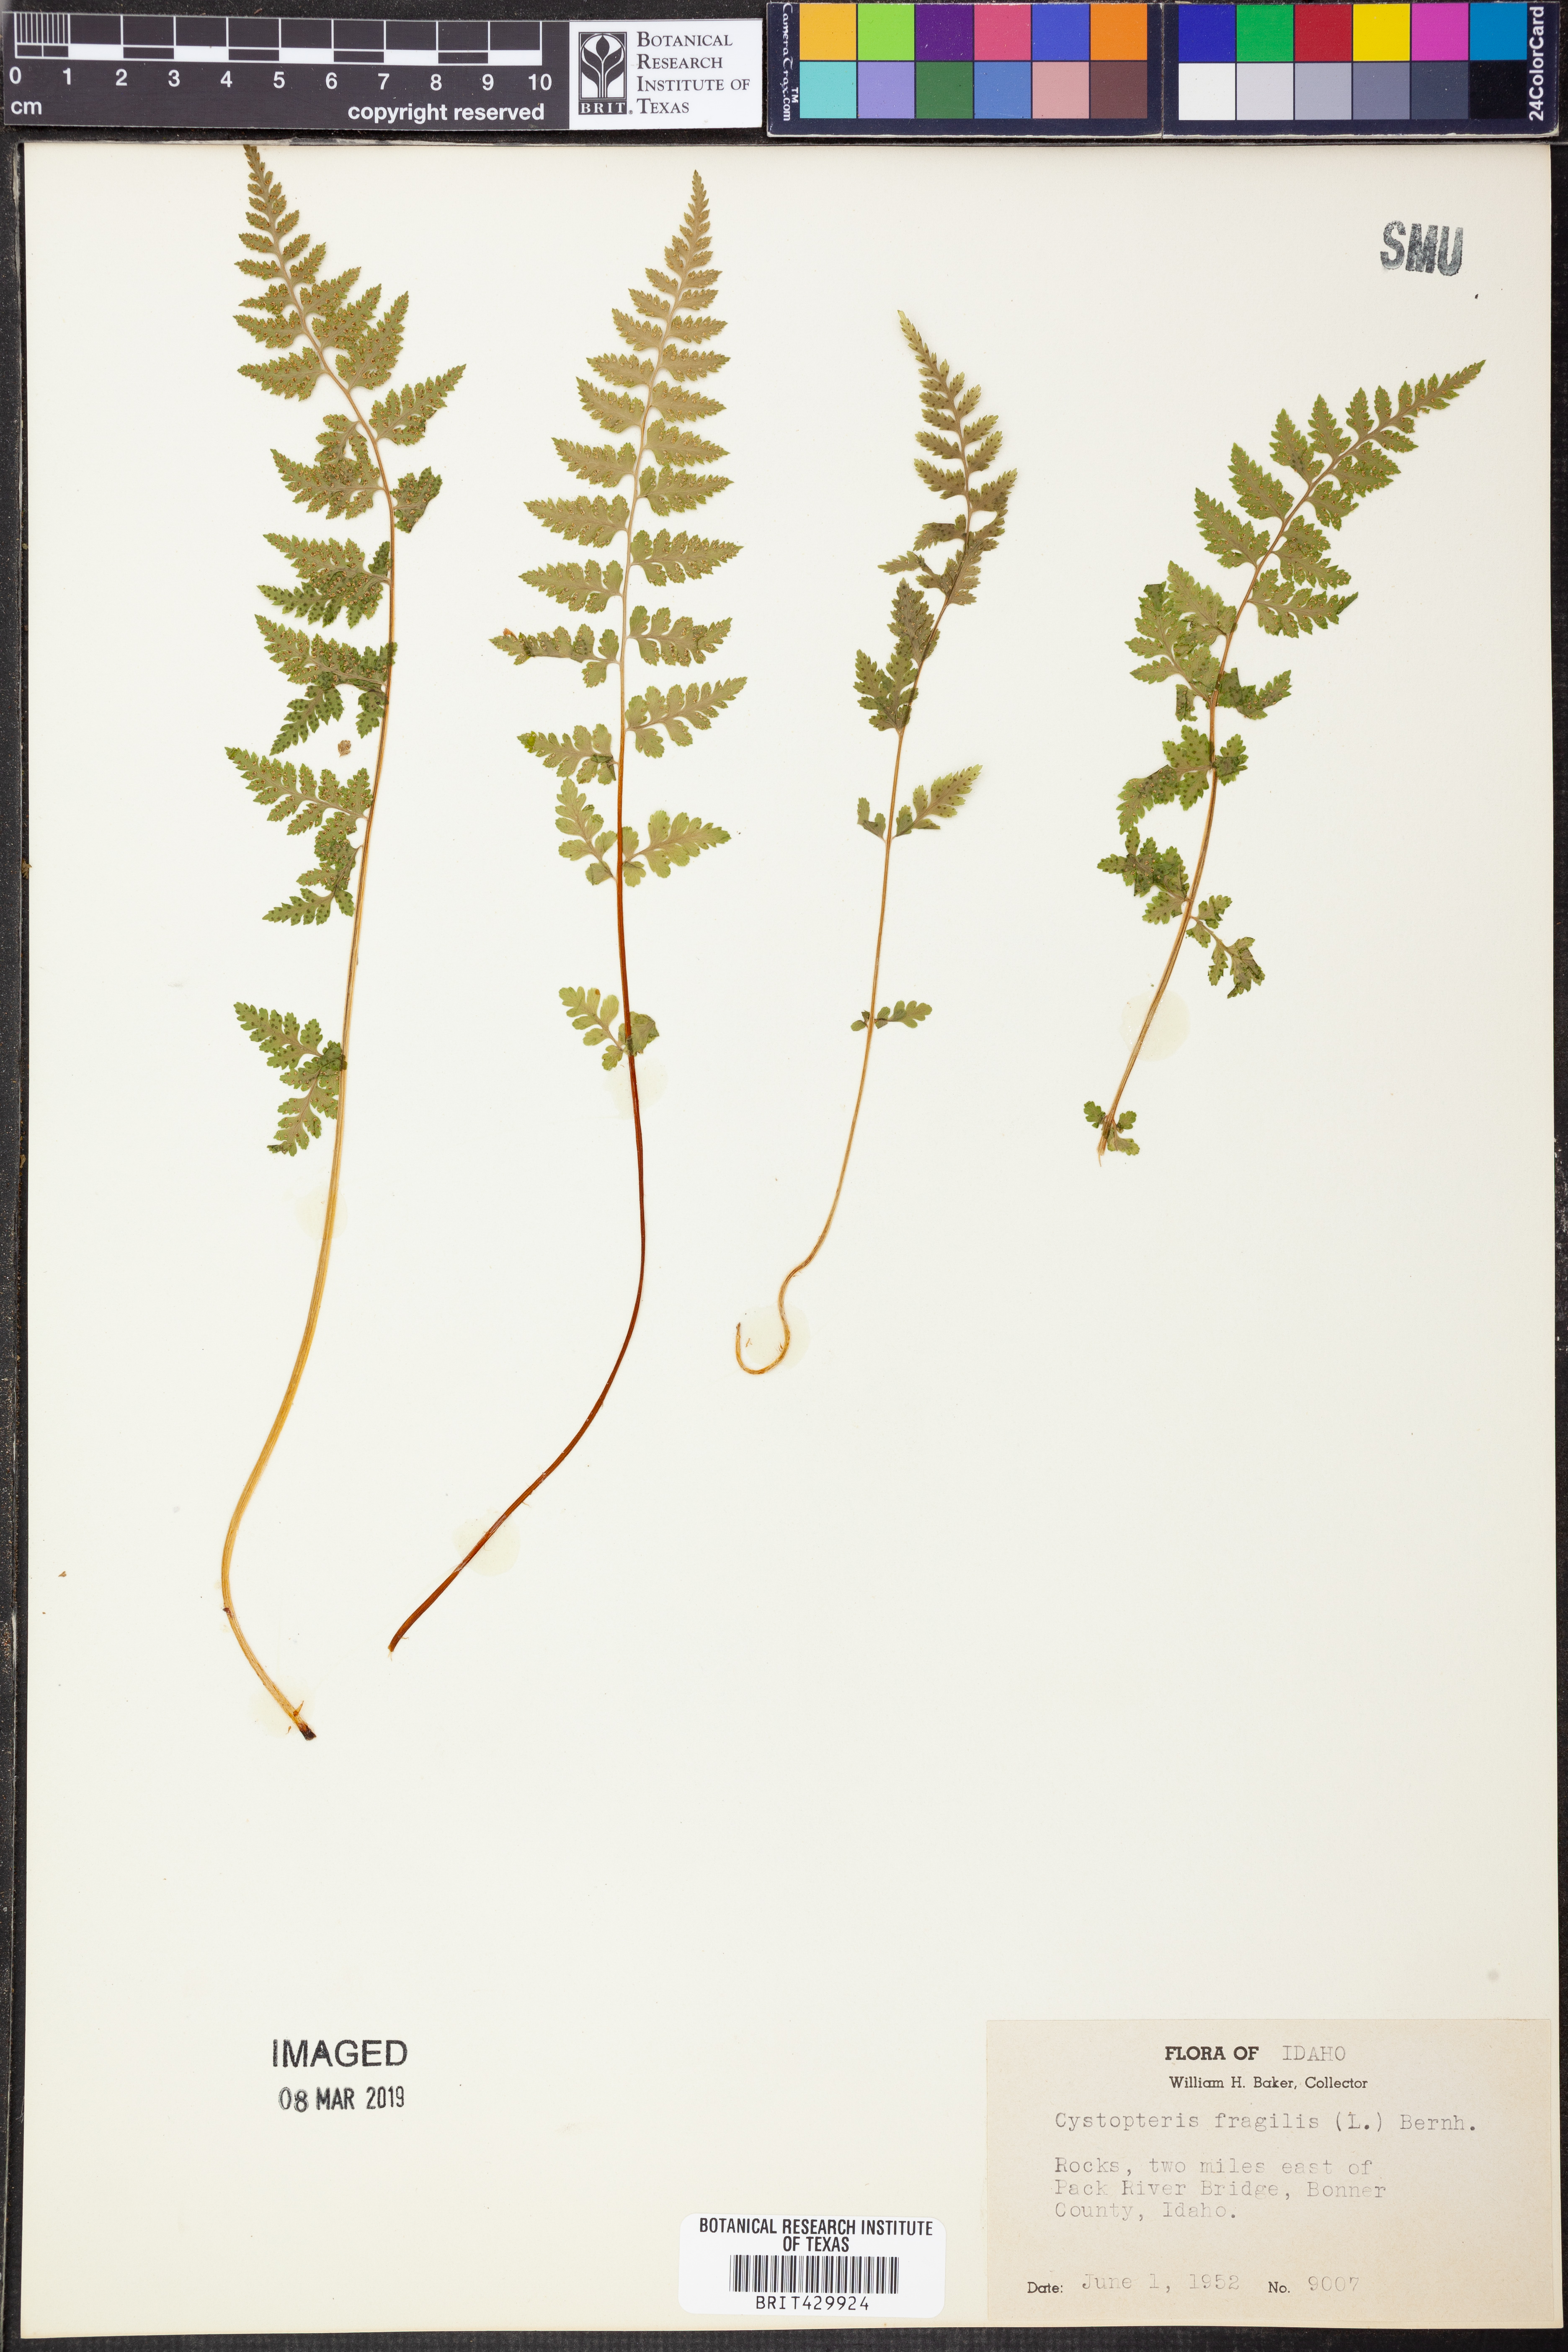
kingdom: Plantae
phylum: Tracheophyta
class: Polypodiopsida
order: Polypodiales
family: Cystopteridaceae
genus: Cystopteris
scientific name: Cystopteris fragilis
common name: Brittle bladder fern
